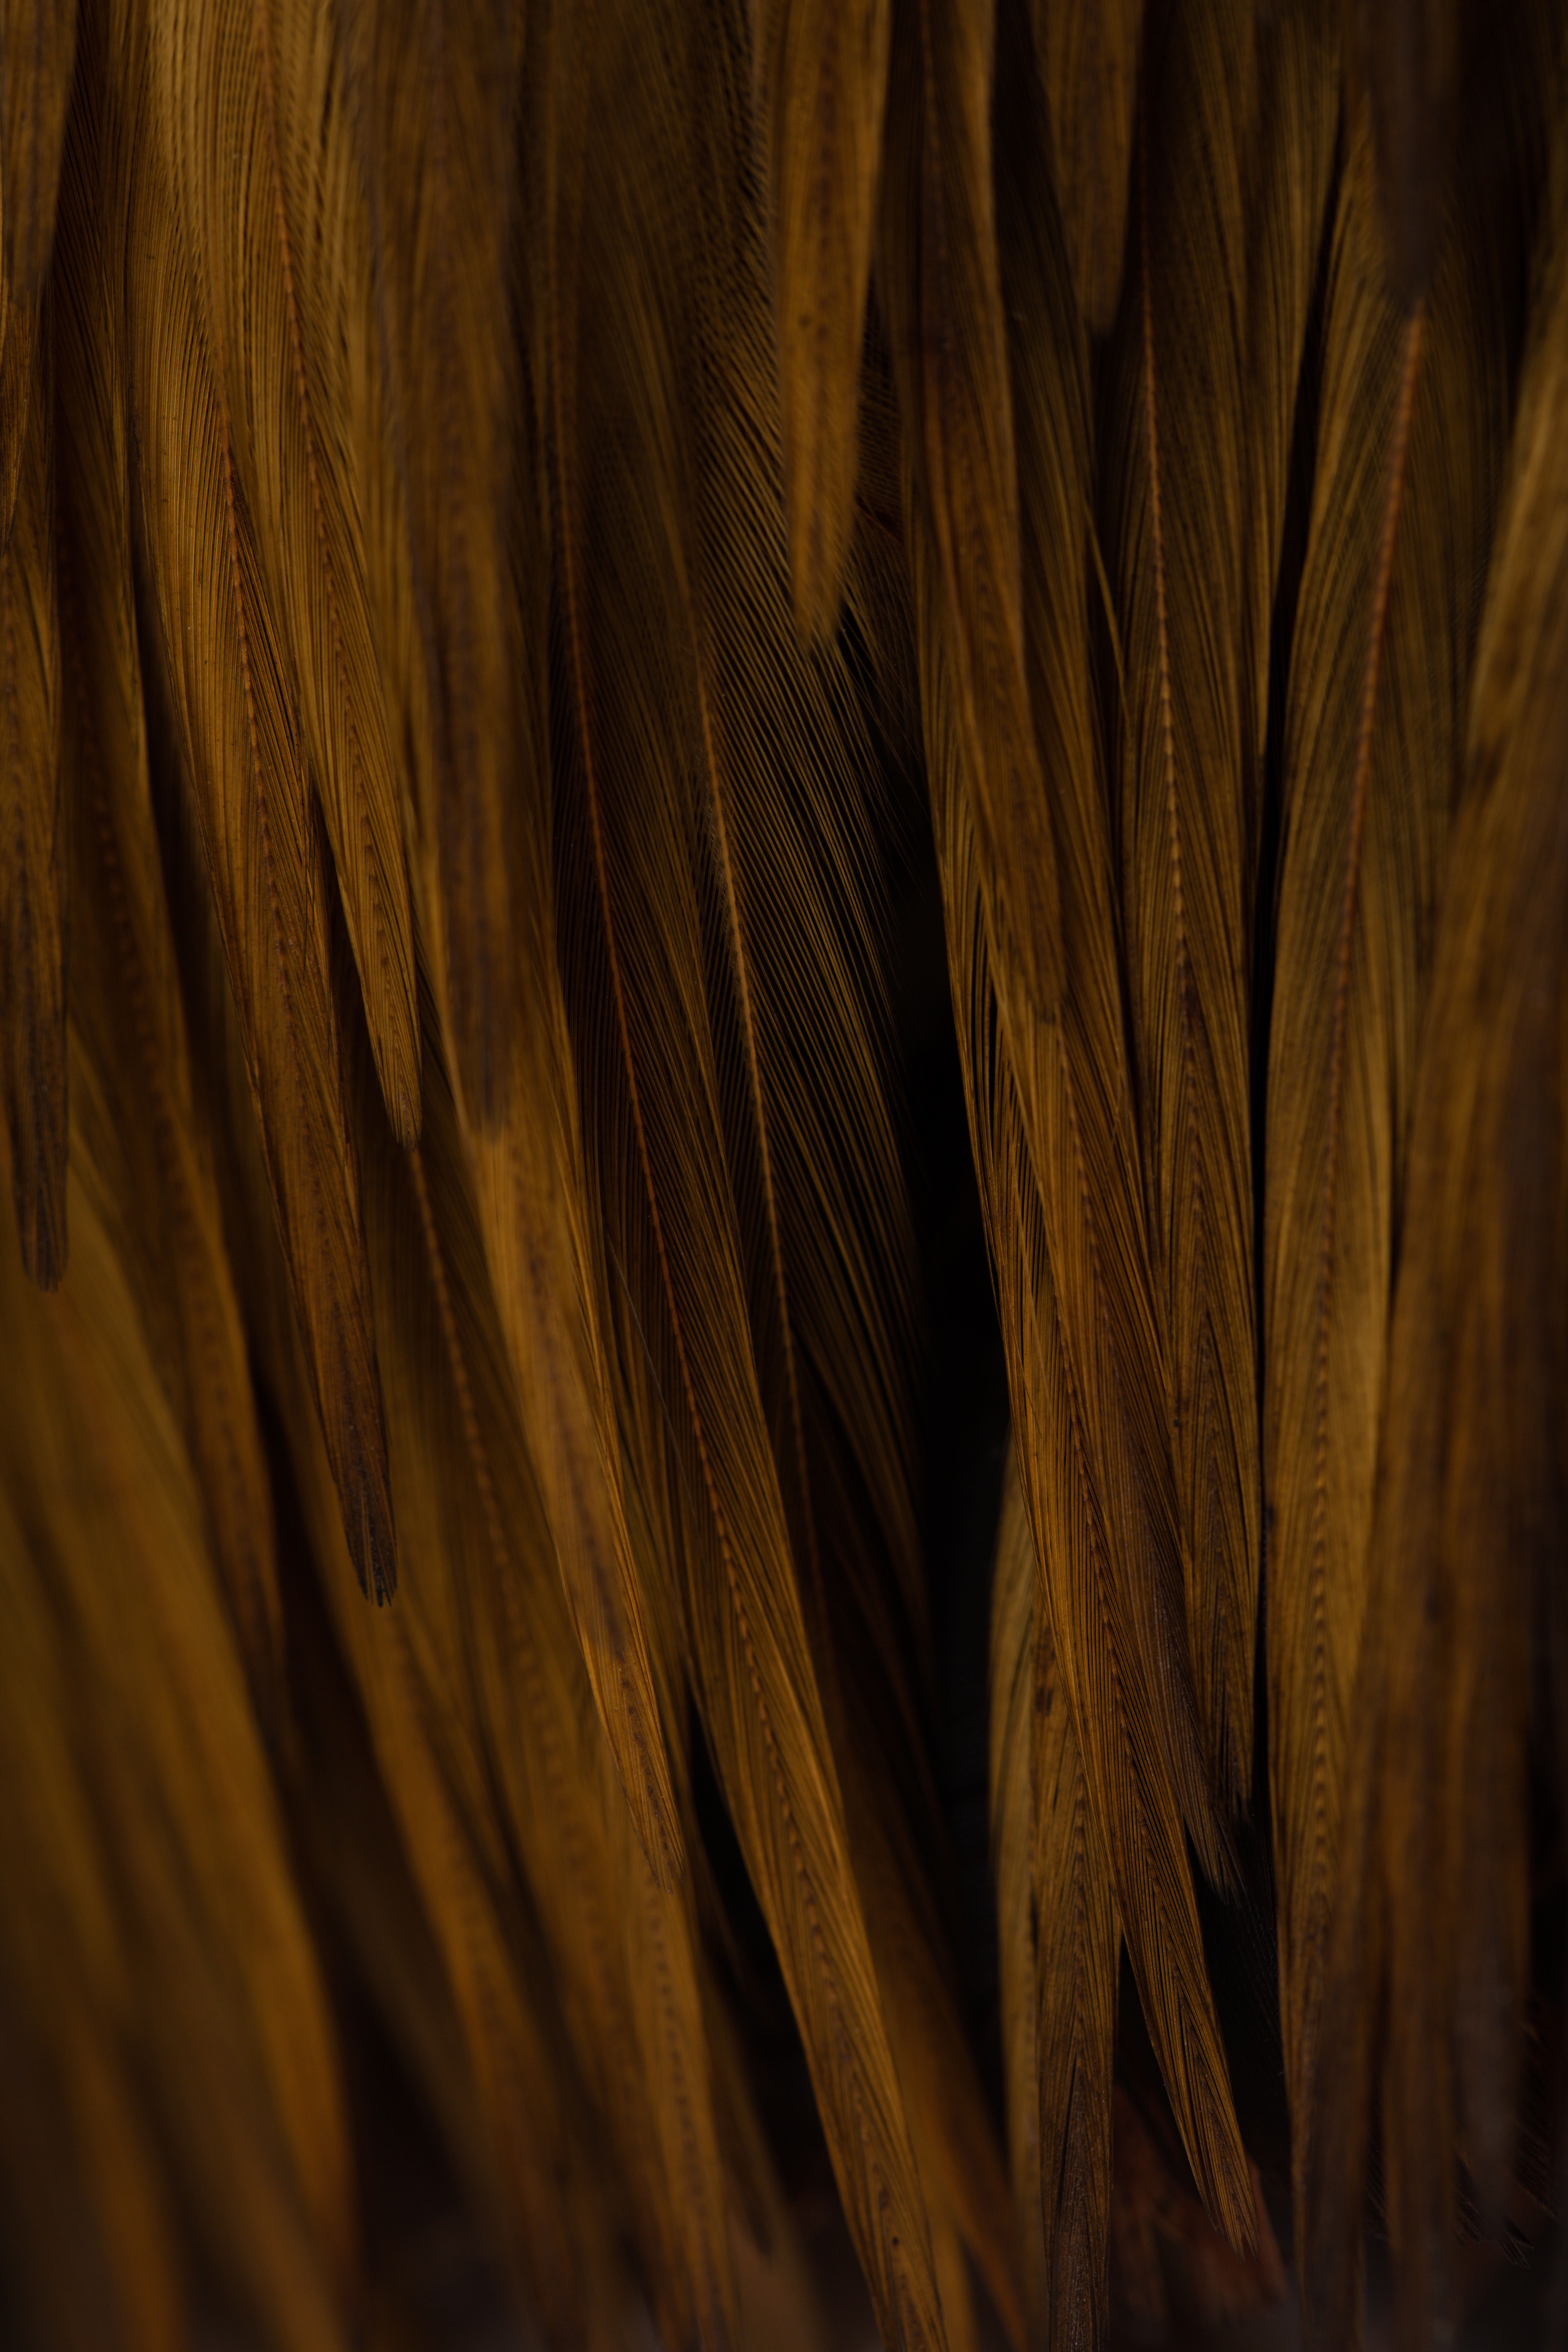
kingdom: Animalia
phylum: Chordata
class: Aves
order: Galliformes
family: Phasianidae
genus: Gallus
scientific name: Gallus gallus
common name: Red junglefowl
